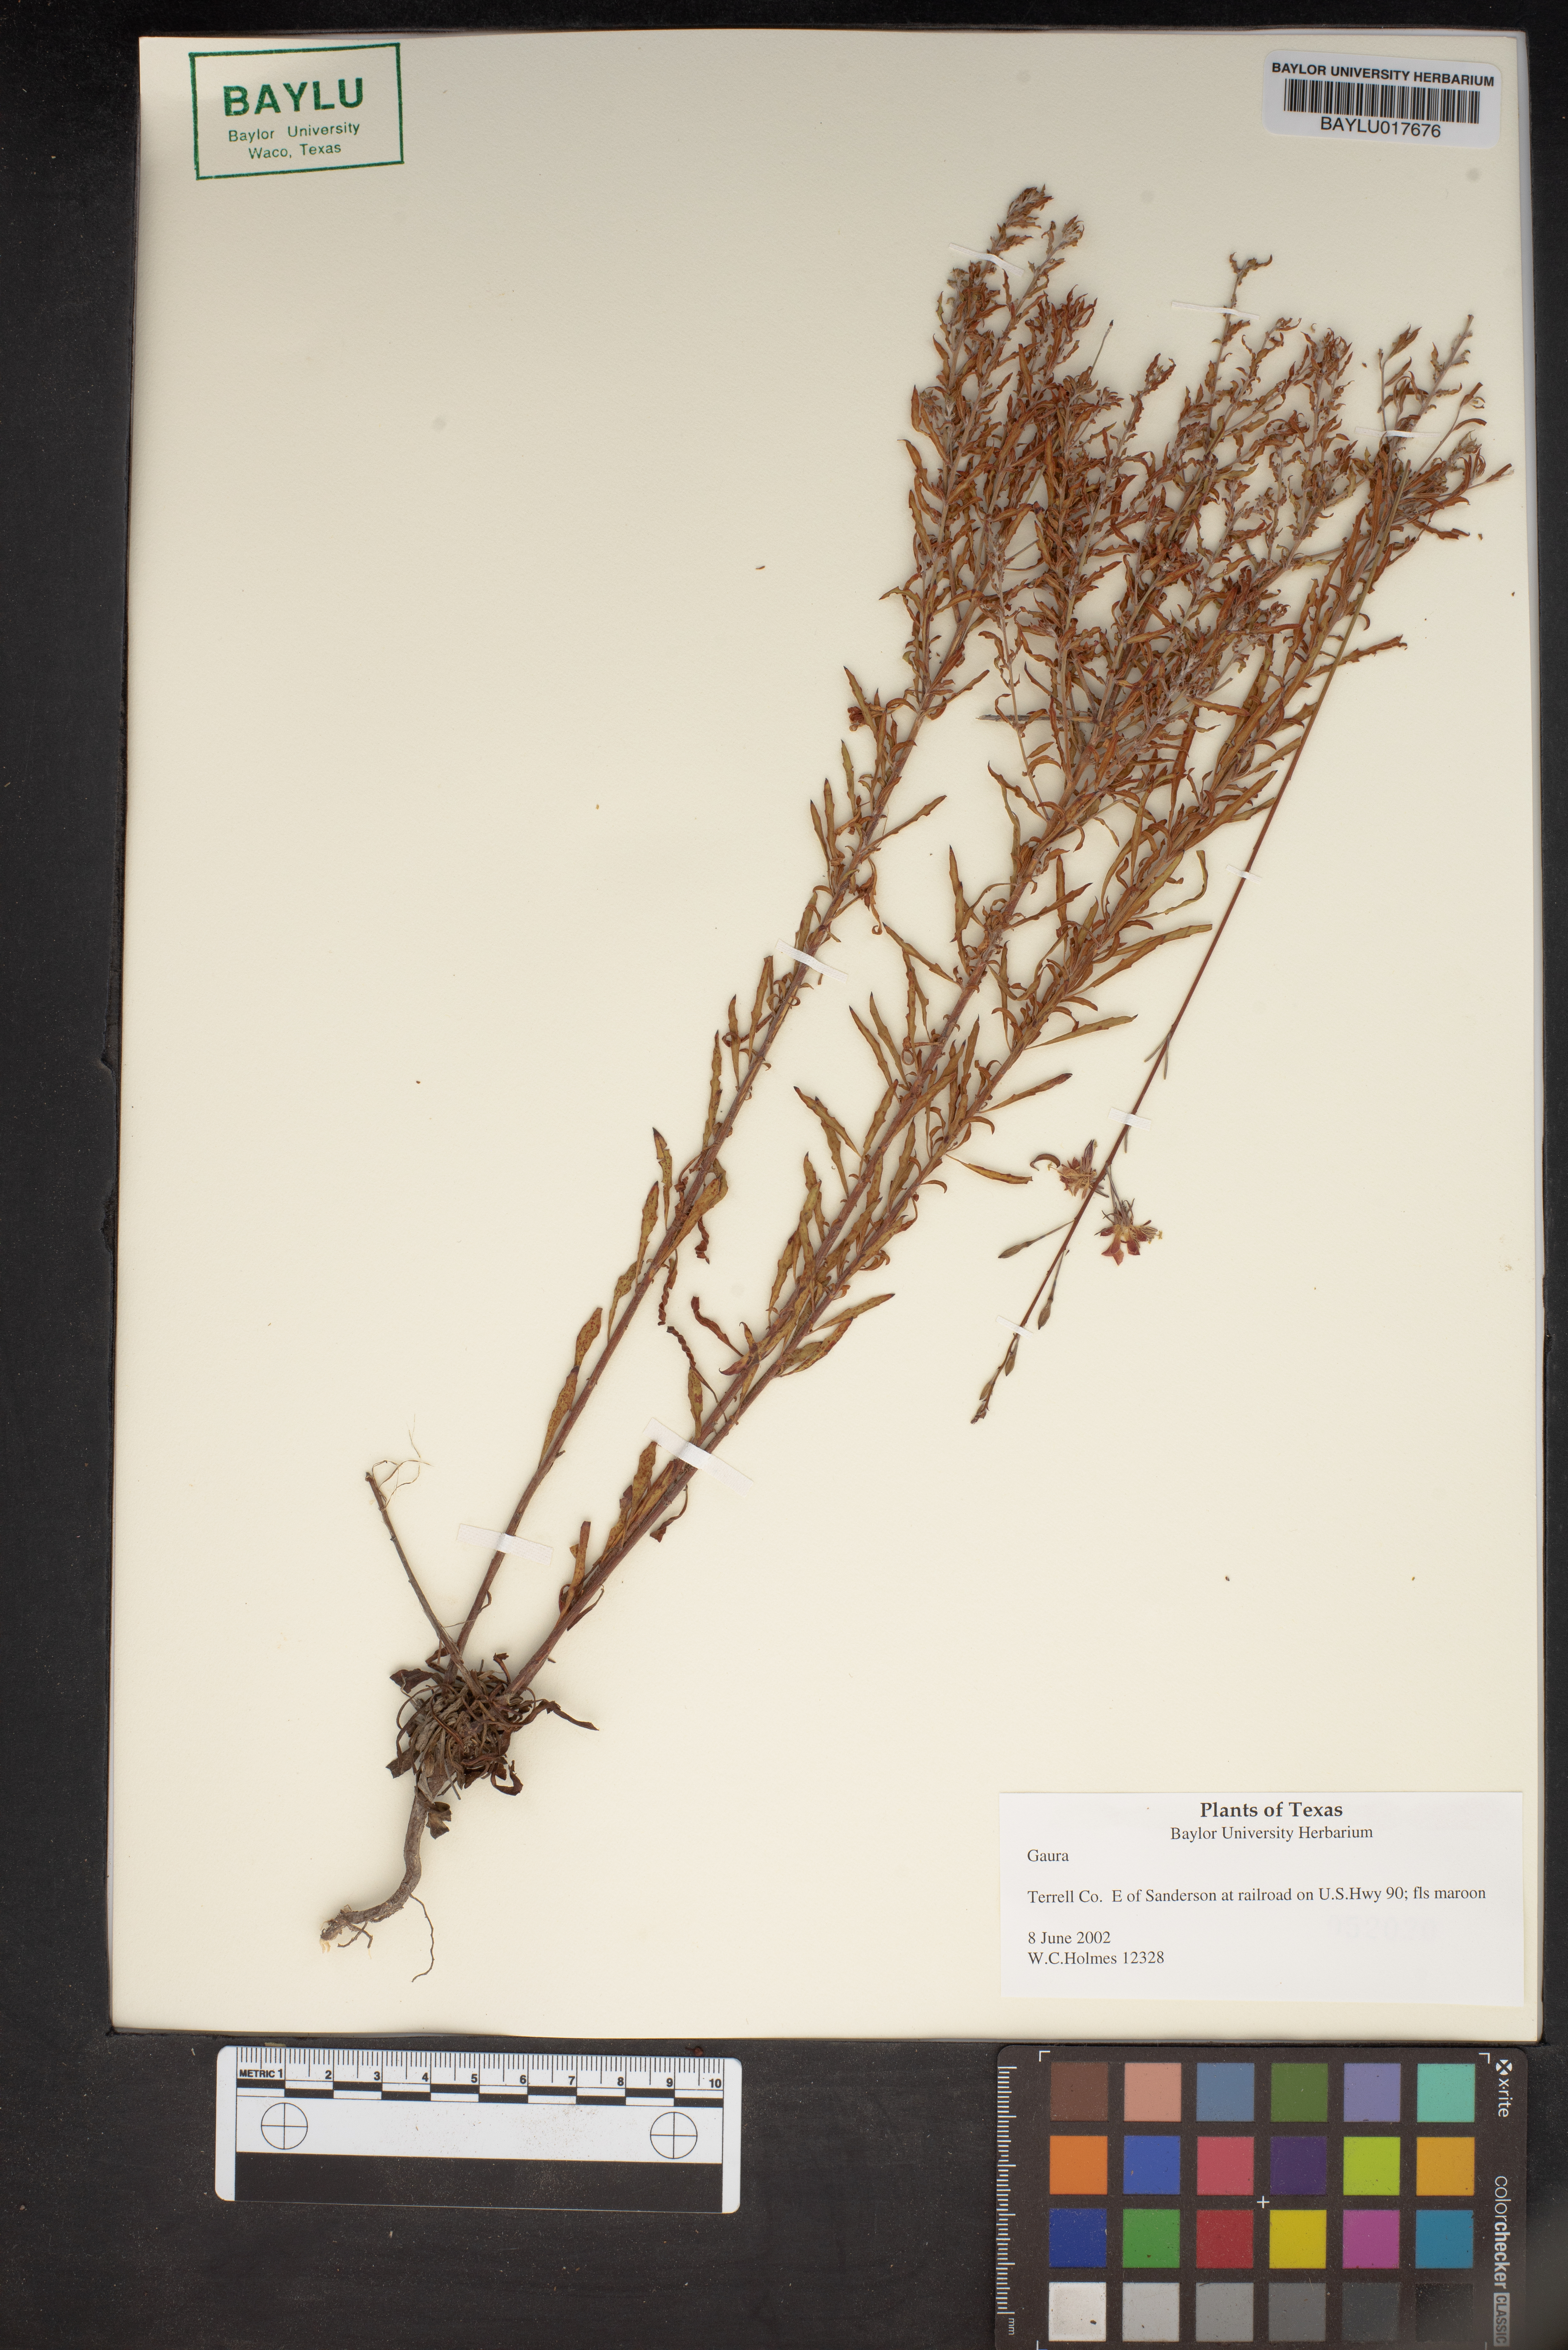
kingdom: Plantae
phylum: Tracheophyta
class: Magnoliopsida
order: Myrtales
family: Onagraceae
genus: Oenothera
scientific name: Oenothera
